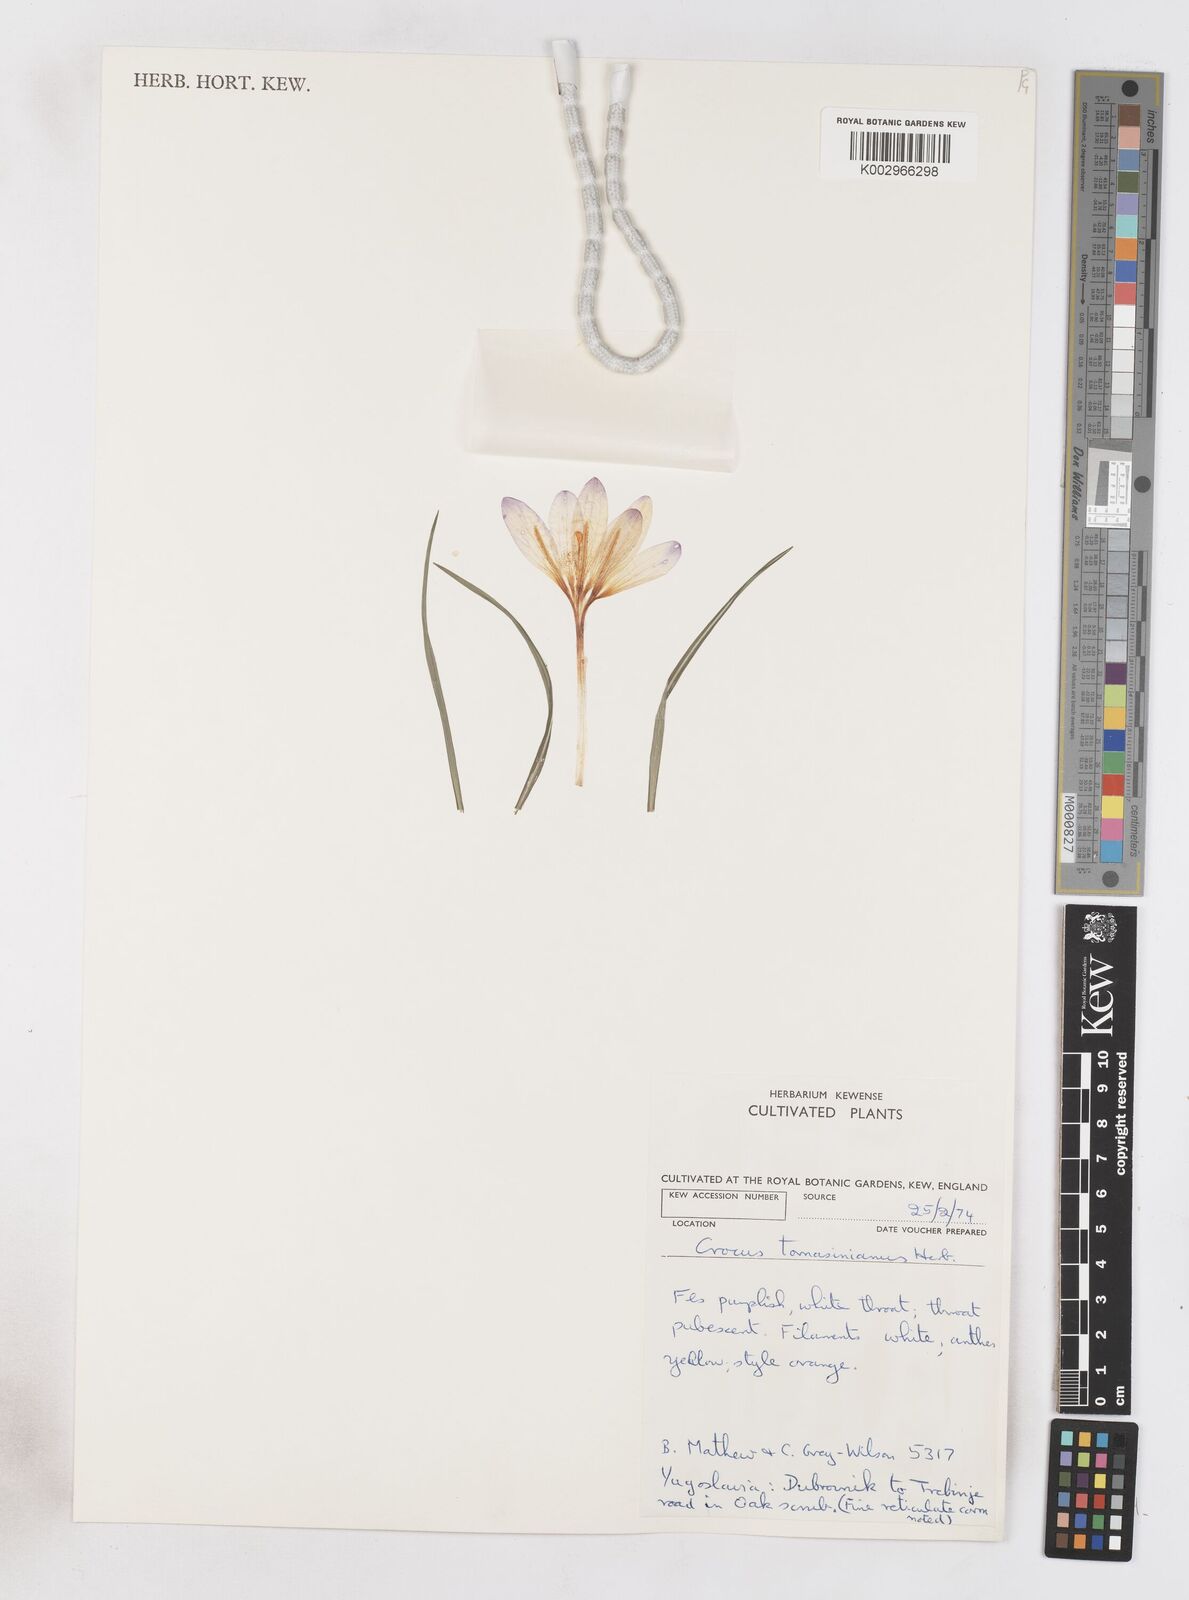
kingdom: Plantae
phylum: Tracheophyta
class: Liliopsida
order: Asparagales
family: Iridaceae
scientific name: Iridaceae
